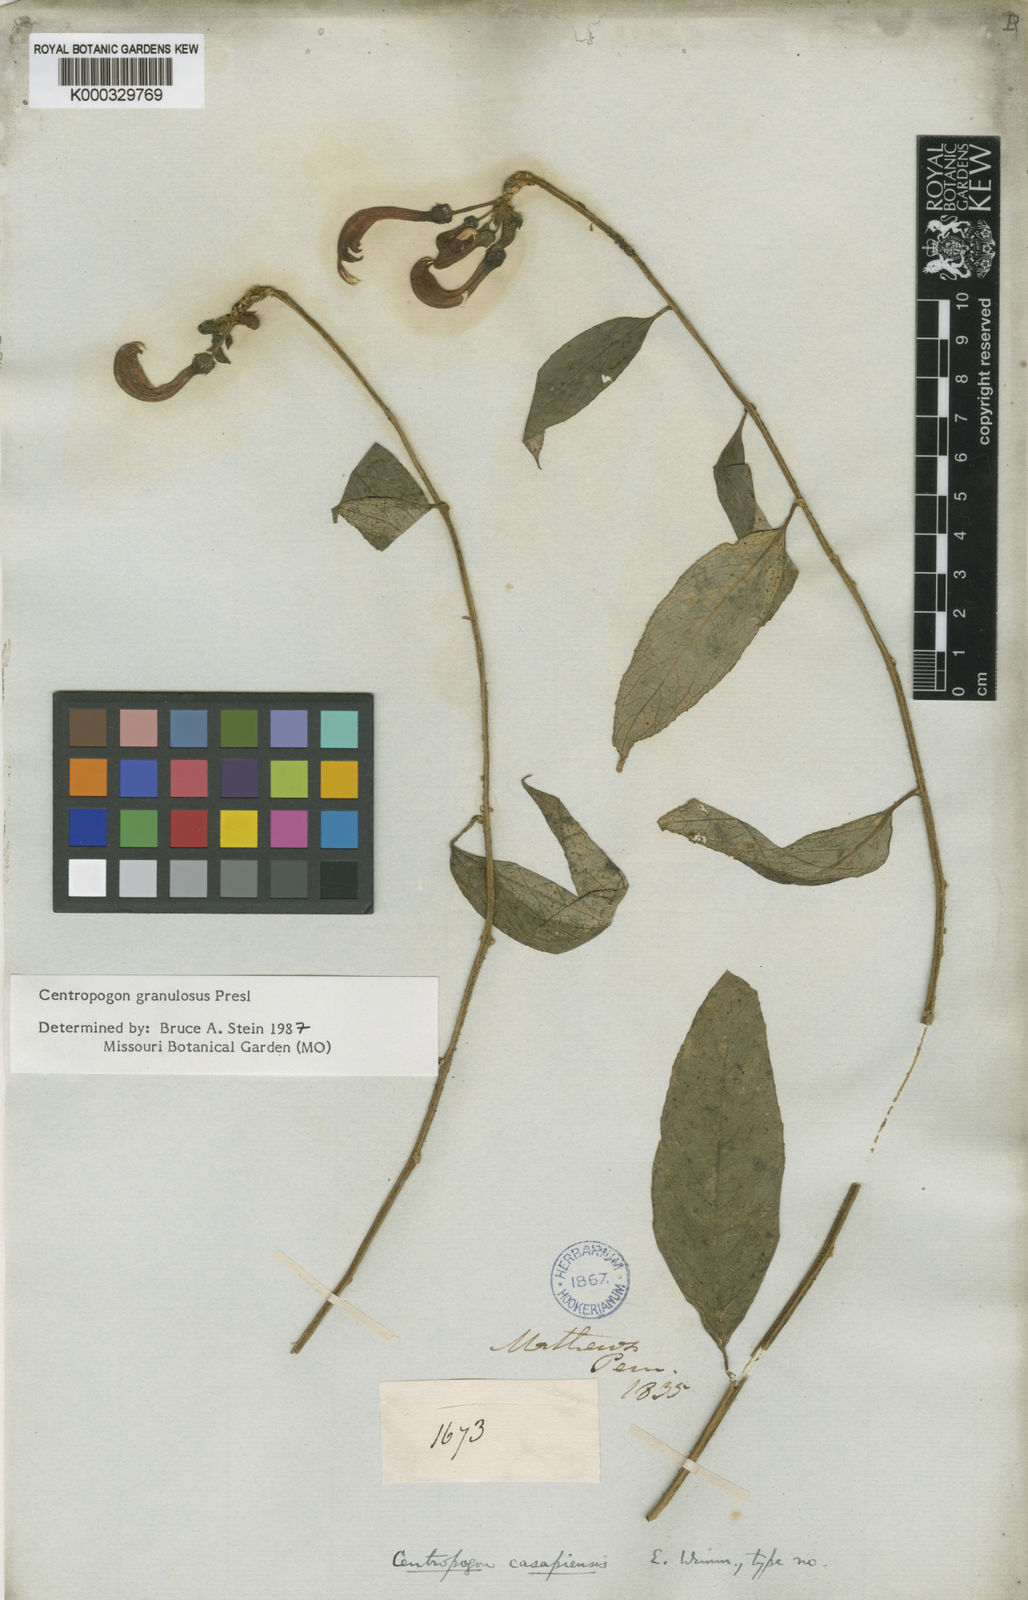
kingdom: Plantae
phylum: Tracheophyta
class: Magnoliopsida
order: Asterales
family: Campanulaceae
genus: Centropogon
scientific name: Centropogon granulosus
